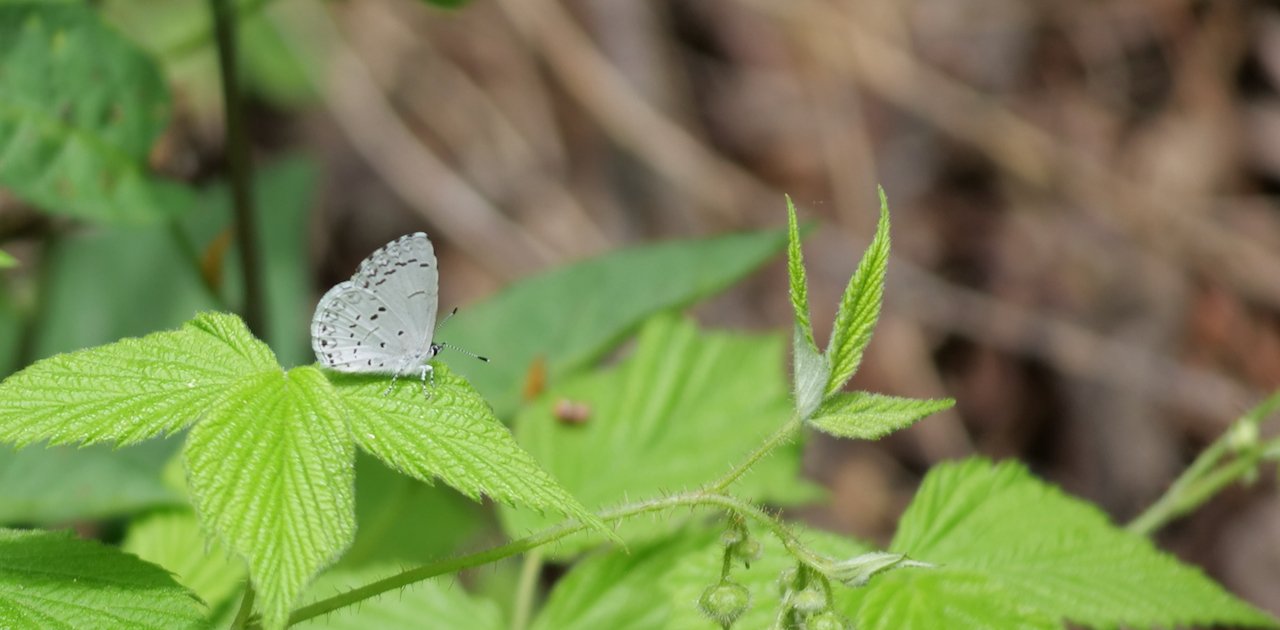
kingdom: Animalia
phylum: Arthropoda
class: Insecta
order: Lepidoptera
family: Lycaenidae
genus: Celastrina
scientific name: Celastrina lucia
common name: Northern Spring Azure
